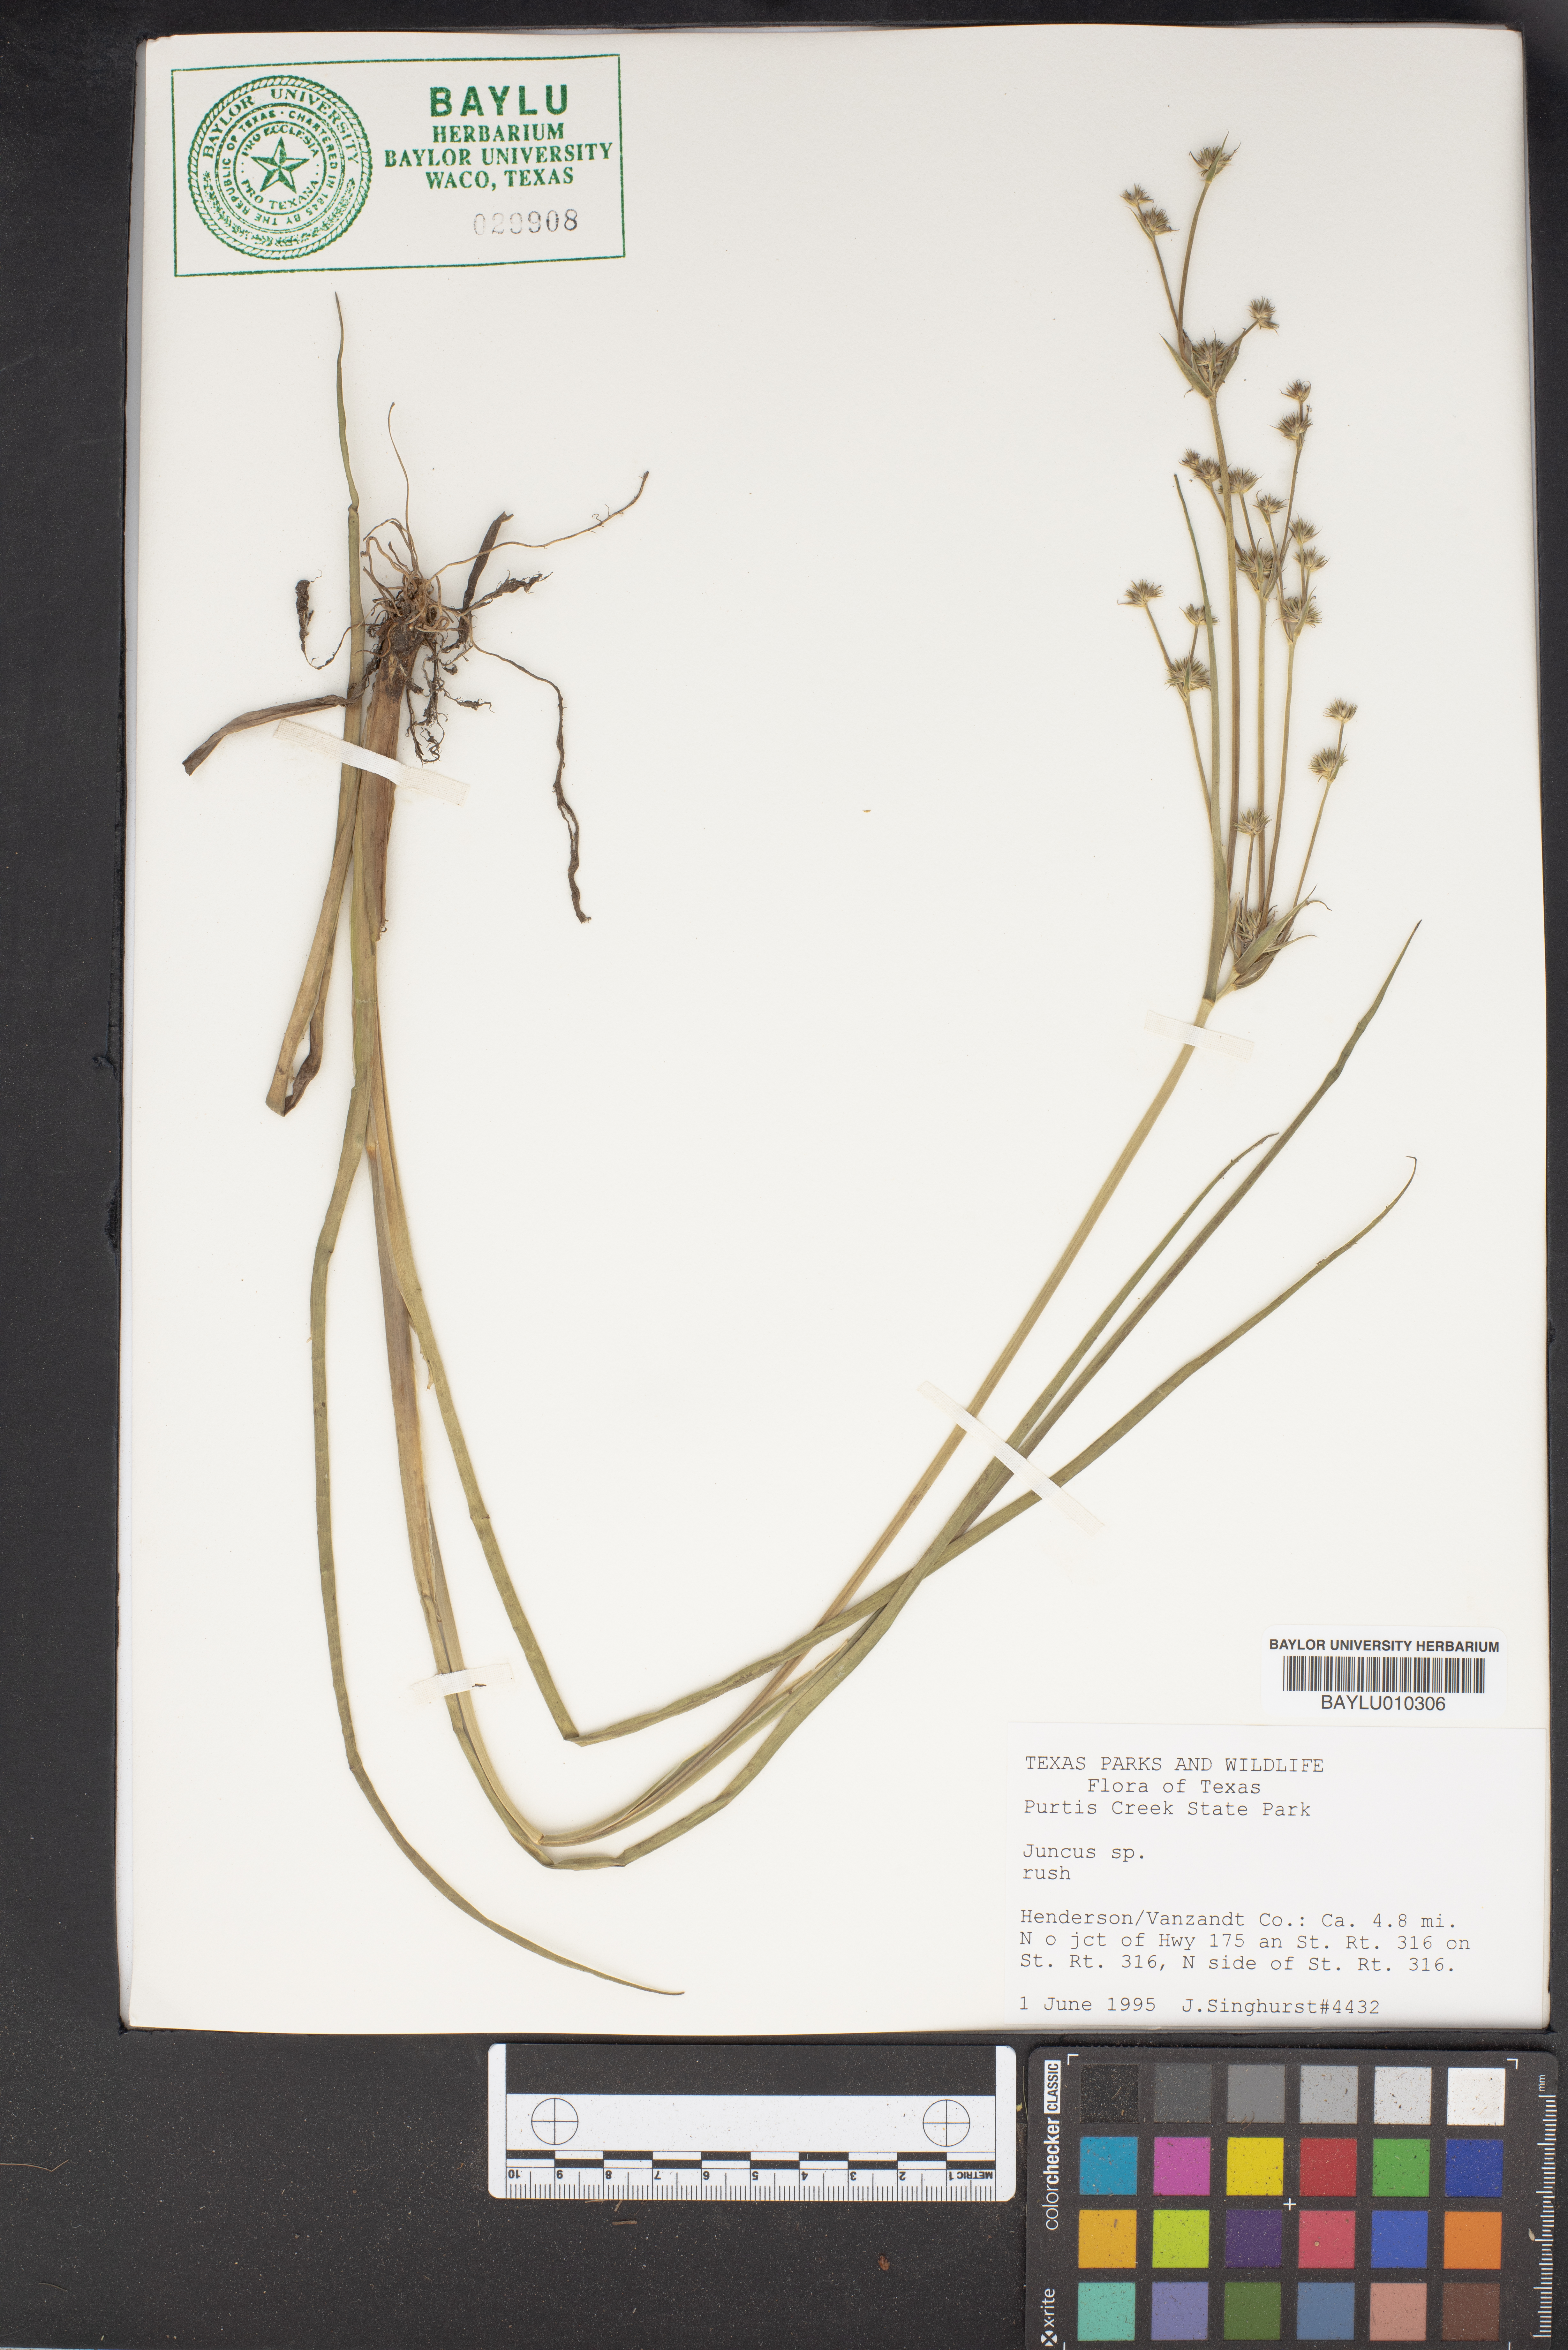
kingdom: Plantae
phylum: Tracheophyta
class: Liliopsida
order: Poales
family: Juncaceae
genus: Juncus
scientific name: Juncus
